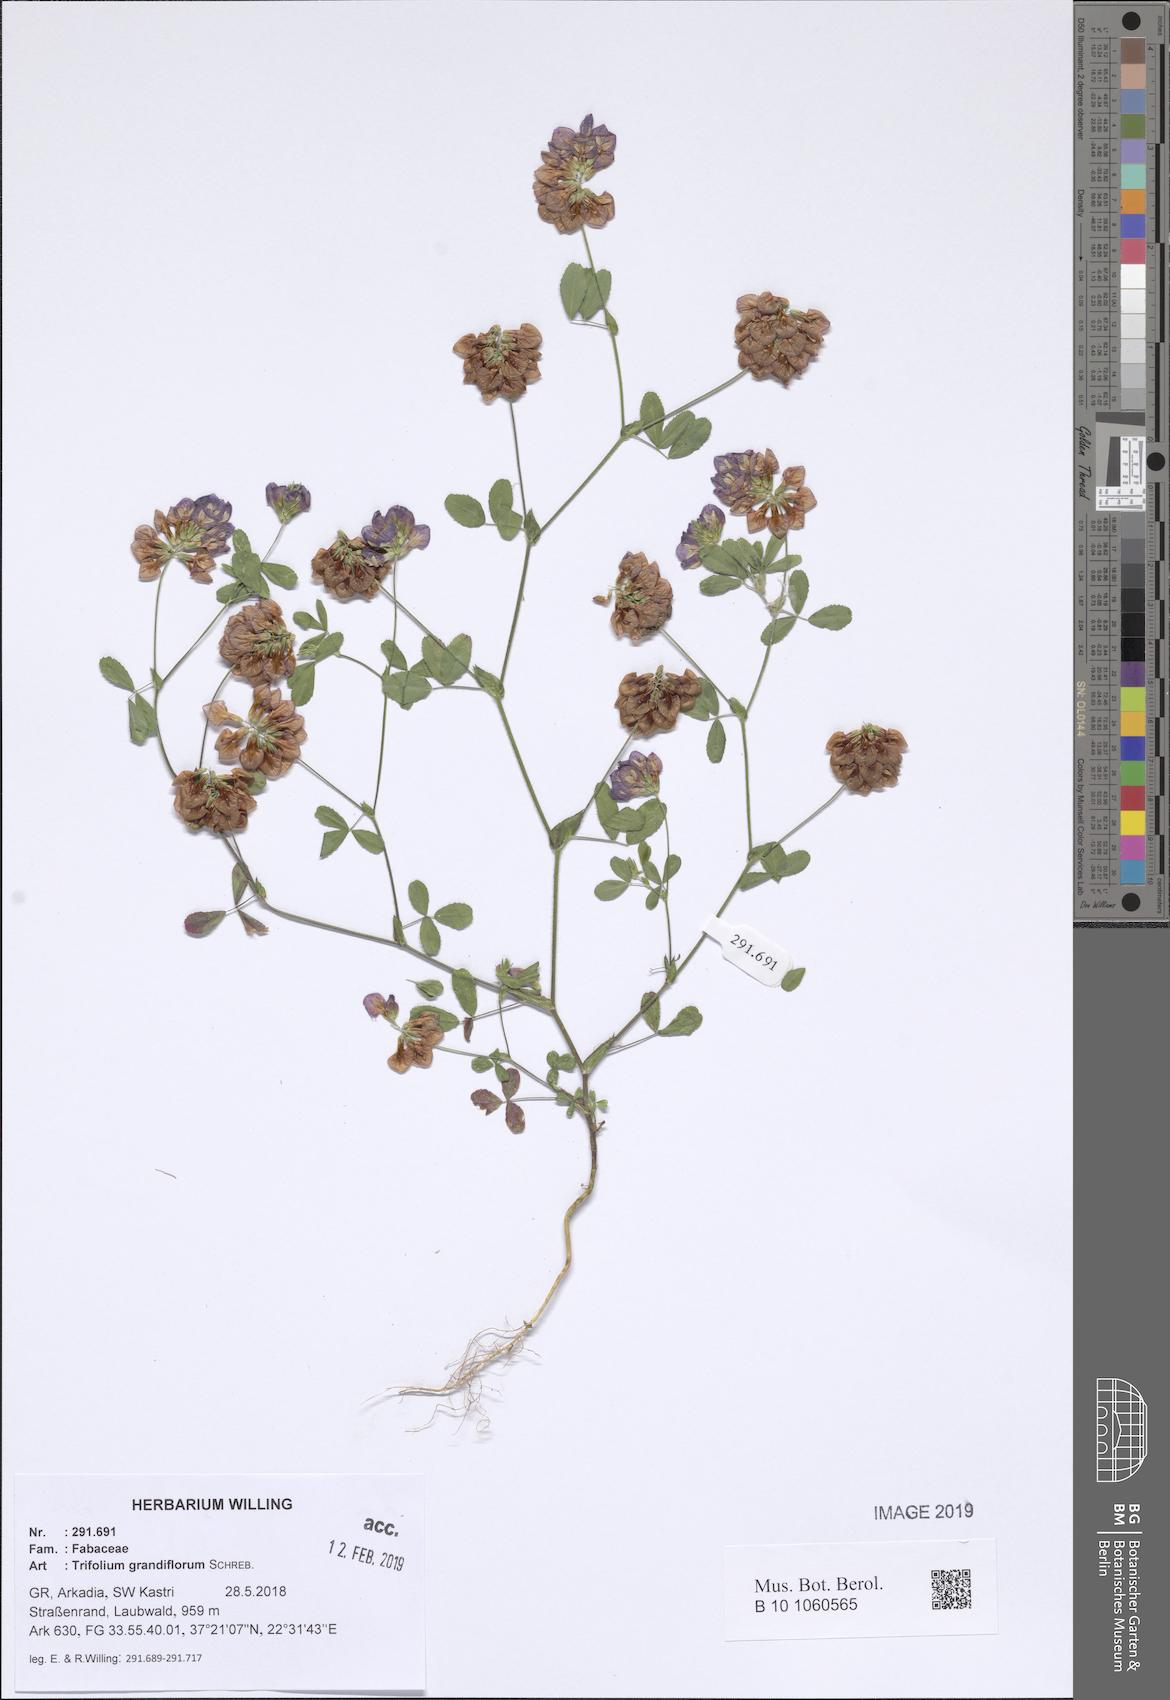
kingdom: Plantae
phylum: Tracheophyta
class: Magnoliopsida
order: Fabales
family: Fabaceae
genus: Trifolium
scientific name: Trifolium grandiflorum
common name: Large-flower hop clover
